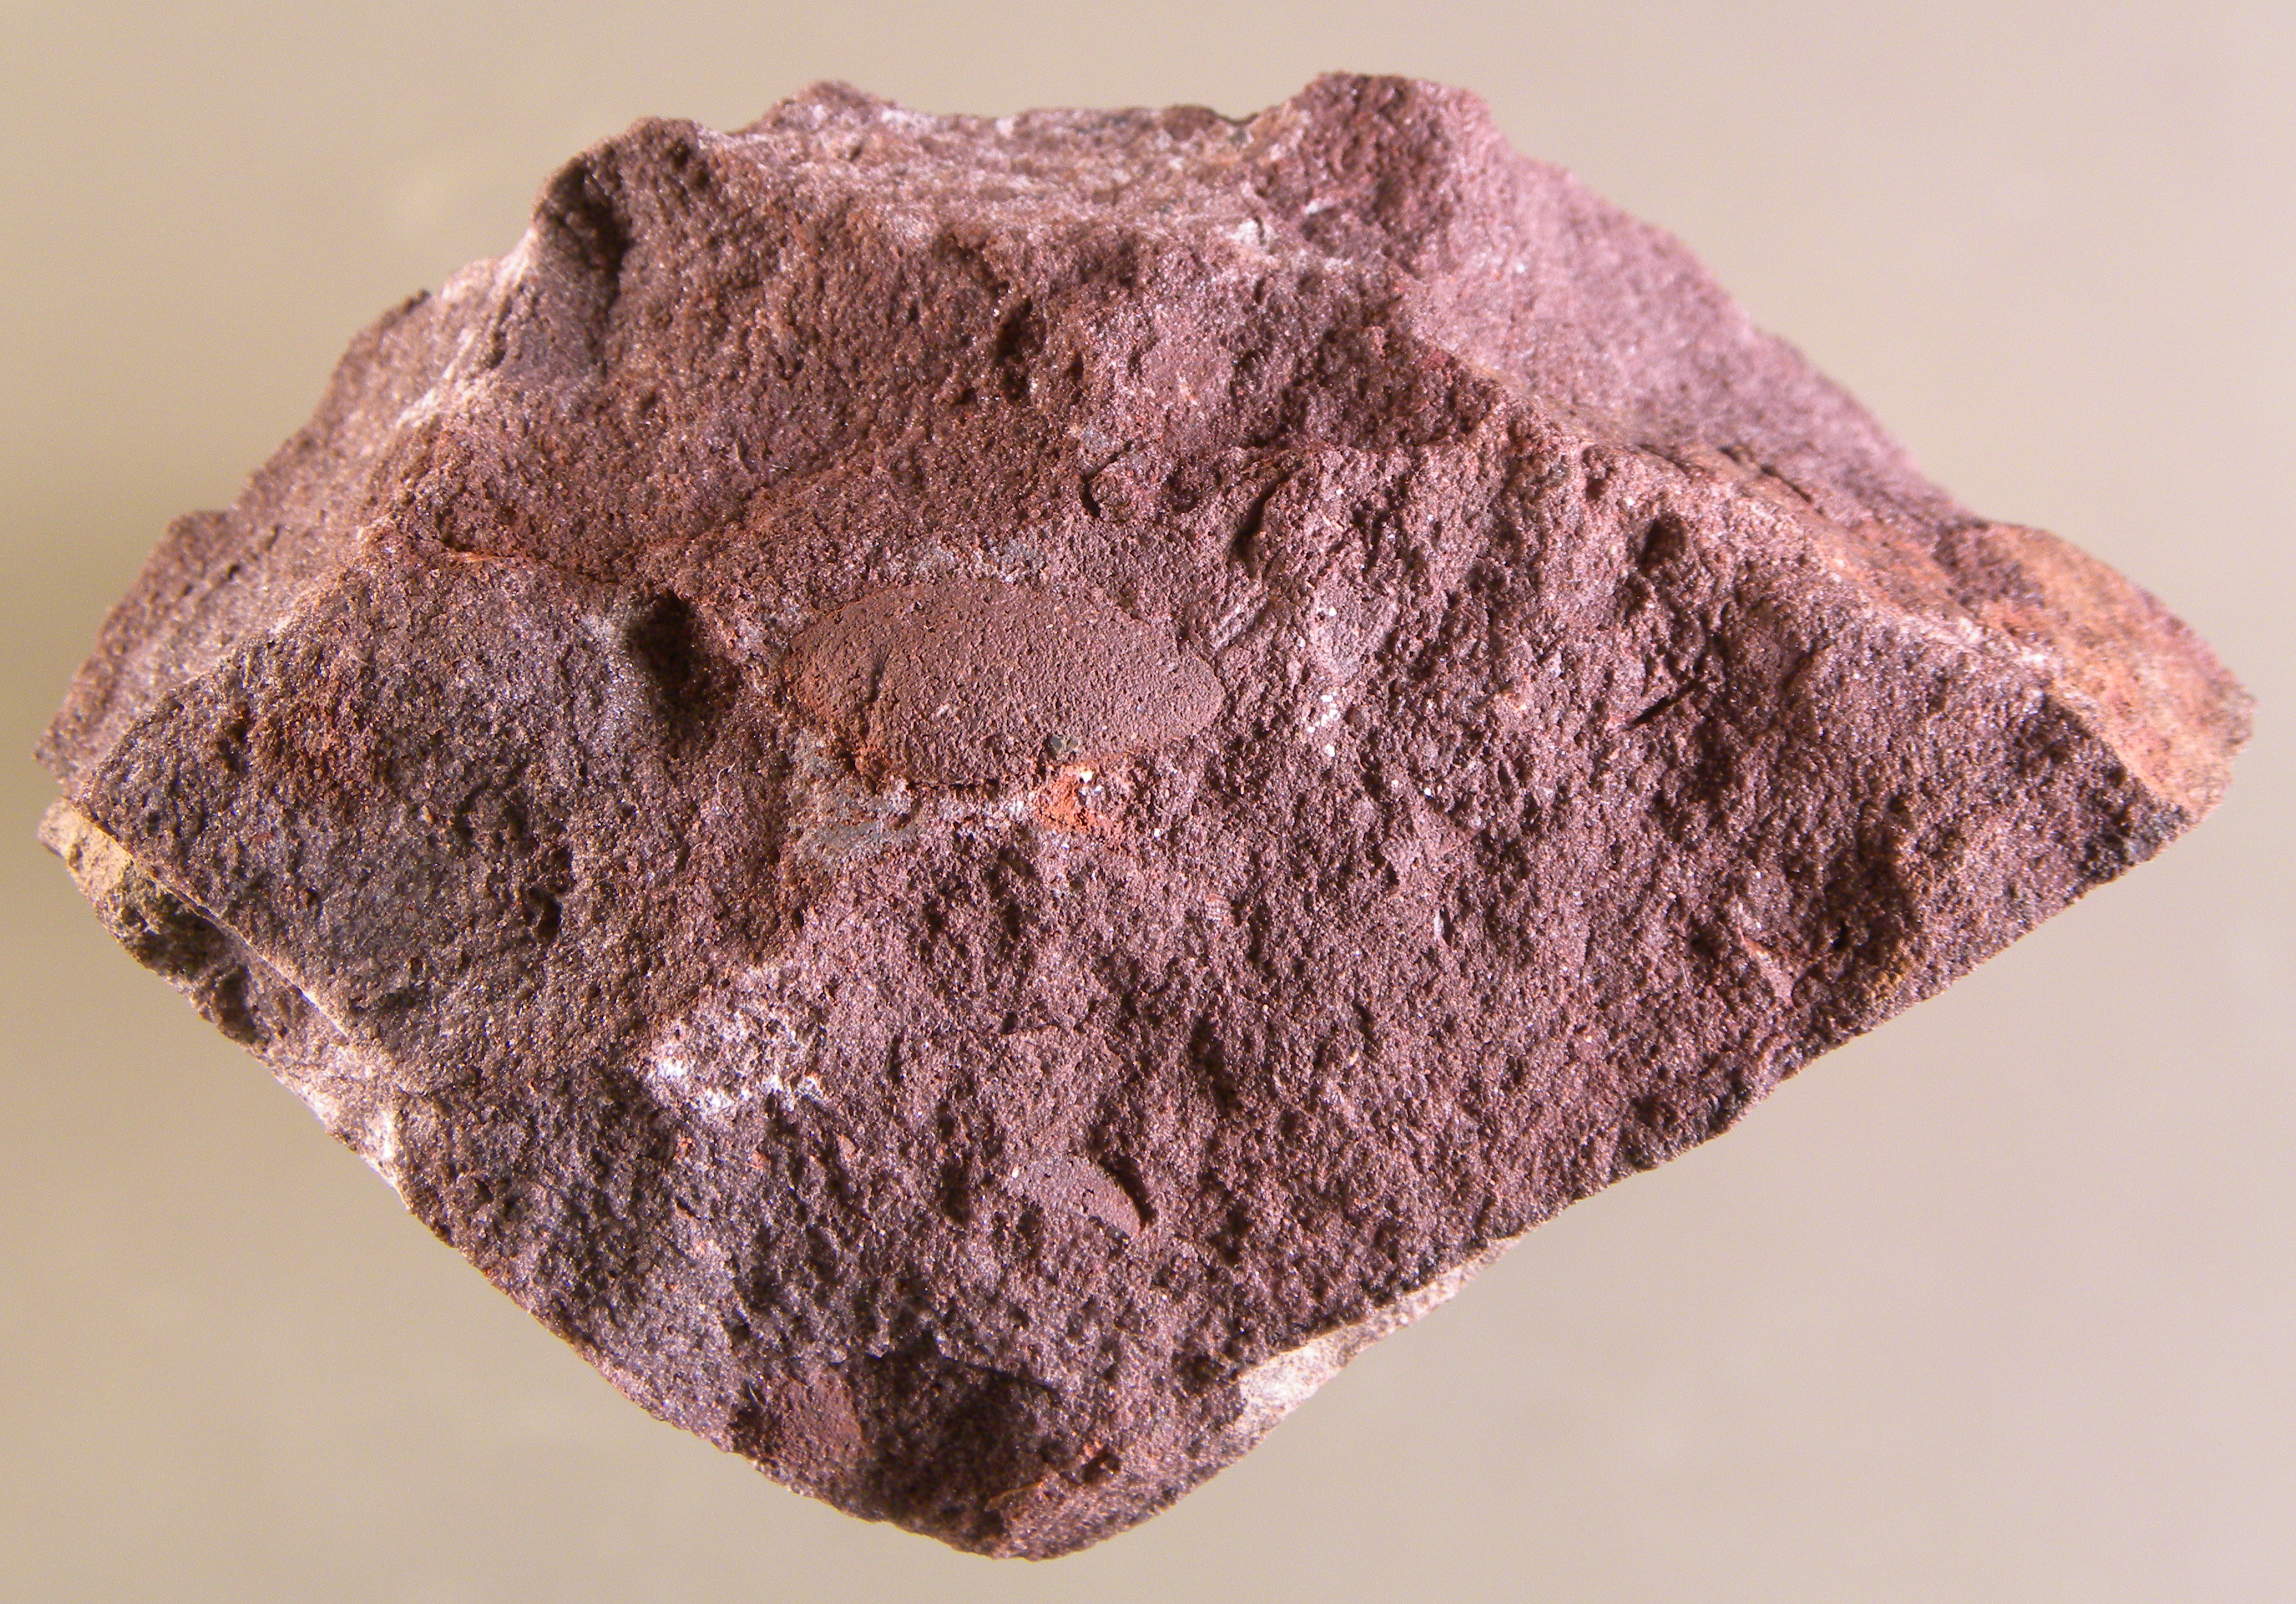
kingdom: Animalia
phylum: Mollusca
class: Bivalvia
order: Nuculanida
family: Cucullellidae
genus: Nuculites
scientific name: Nuculites
